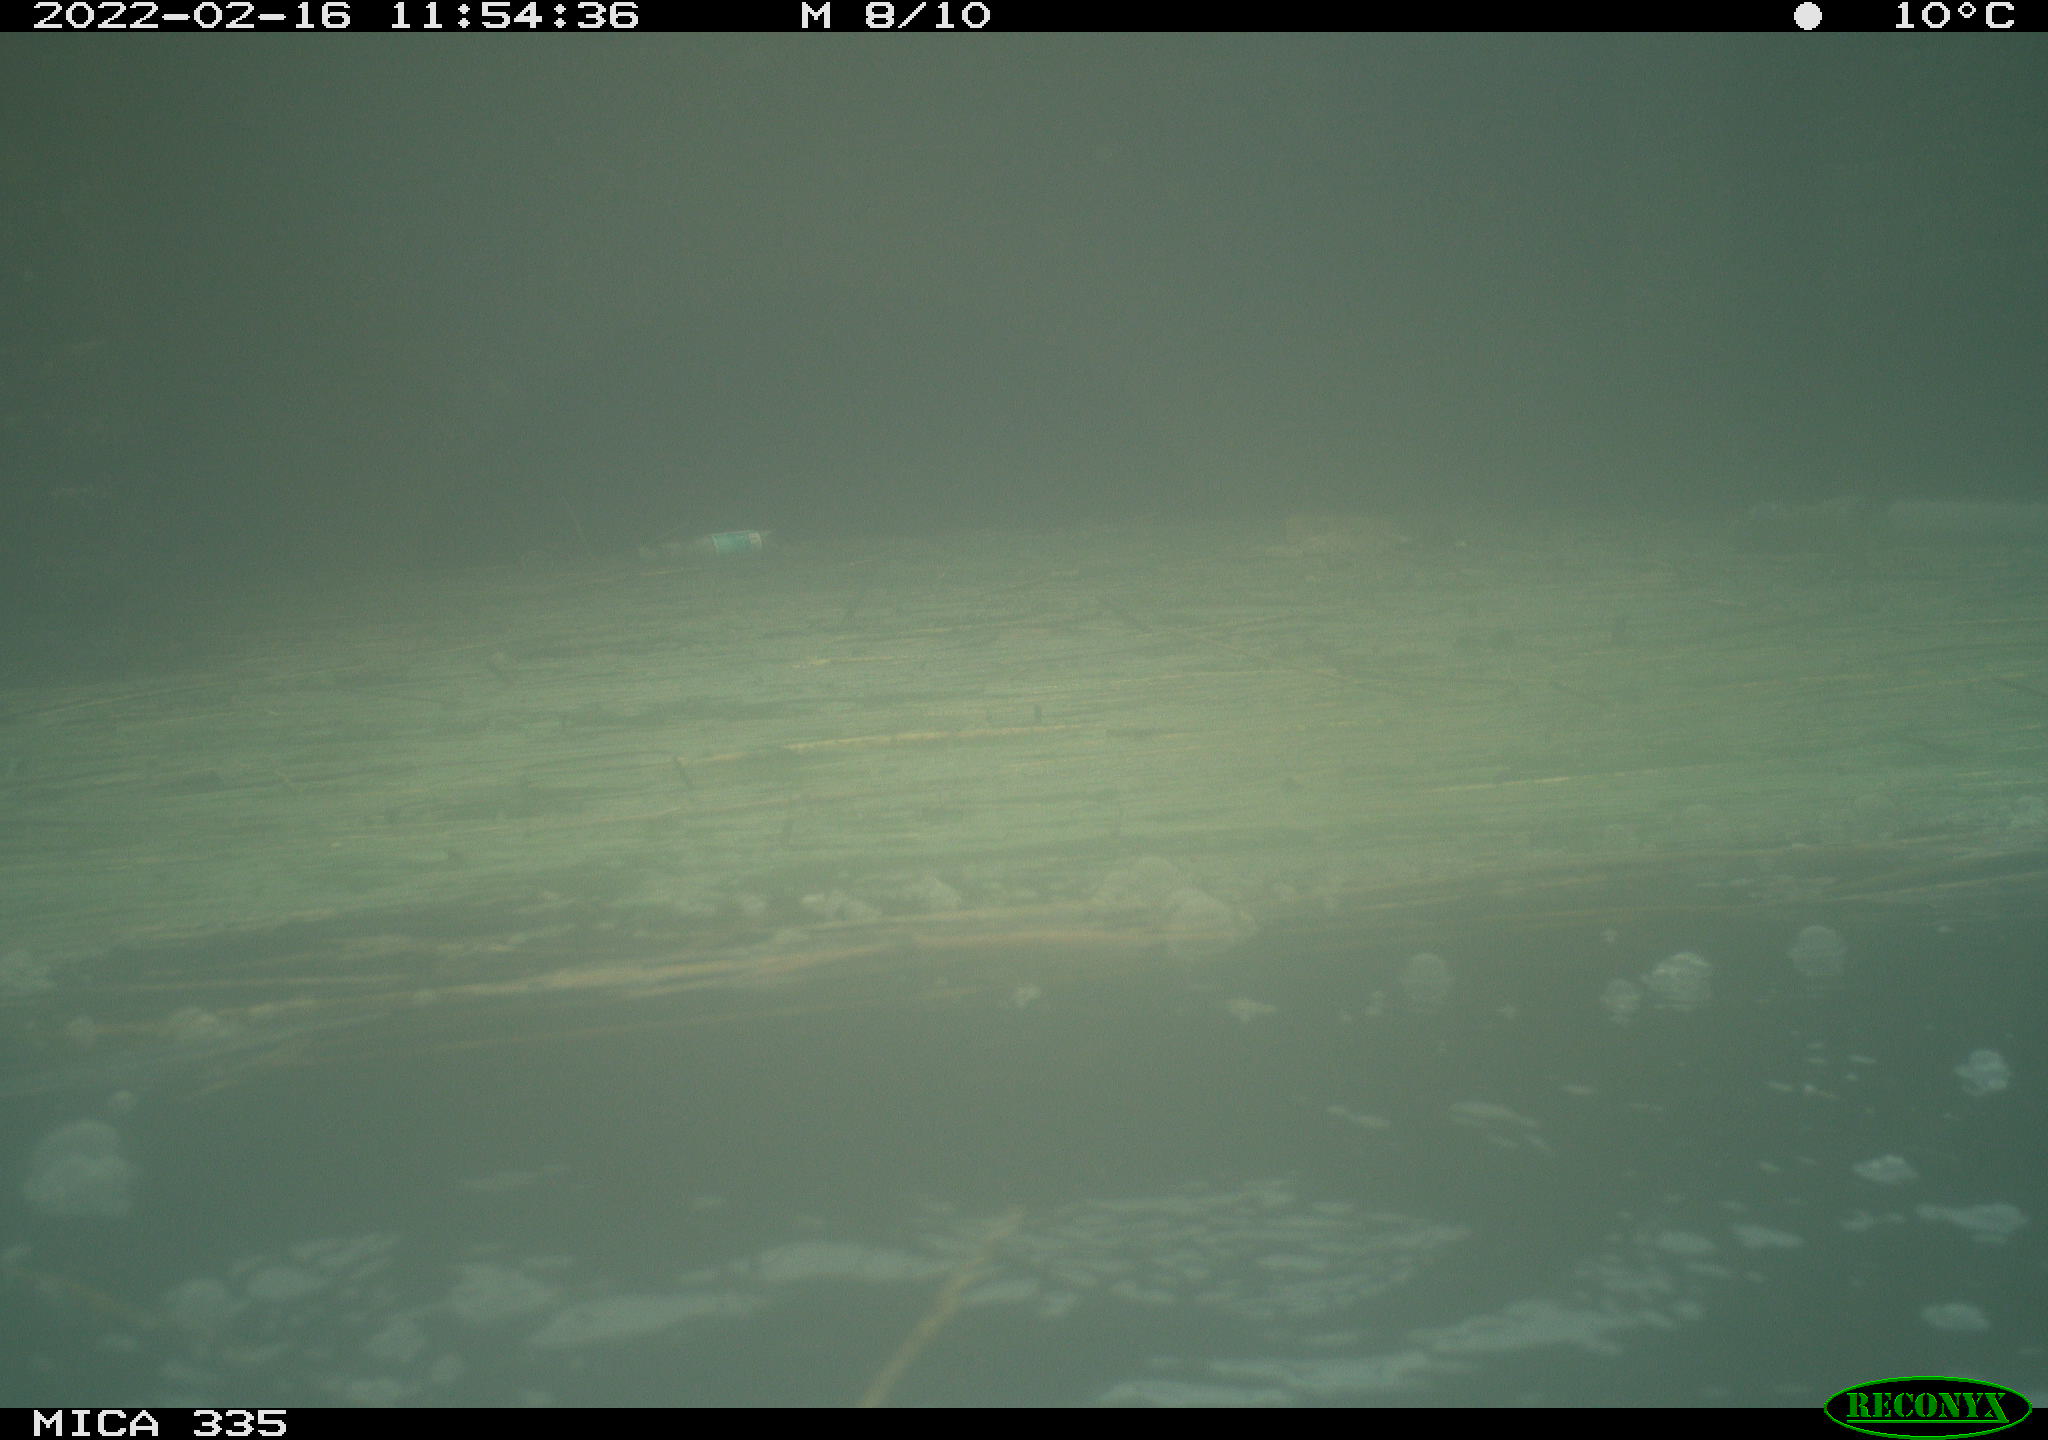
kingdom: Animalia
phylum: Chordata
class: Aves
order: Suliformes
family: Phalacrocoracidae
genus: Phalacrocorax
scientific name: Phalacrocorax carbo
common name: Great cormorant
